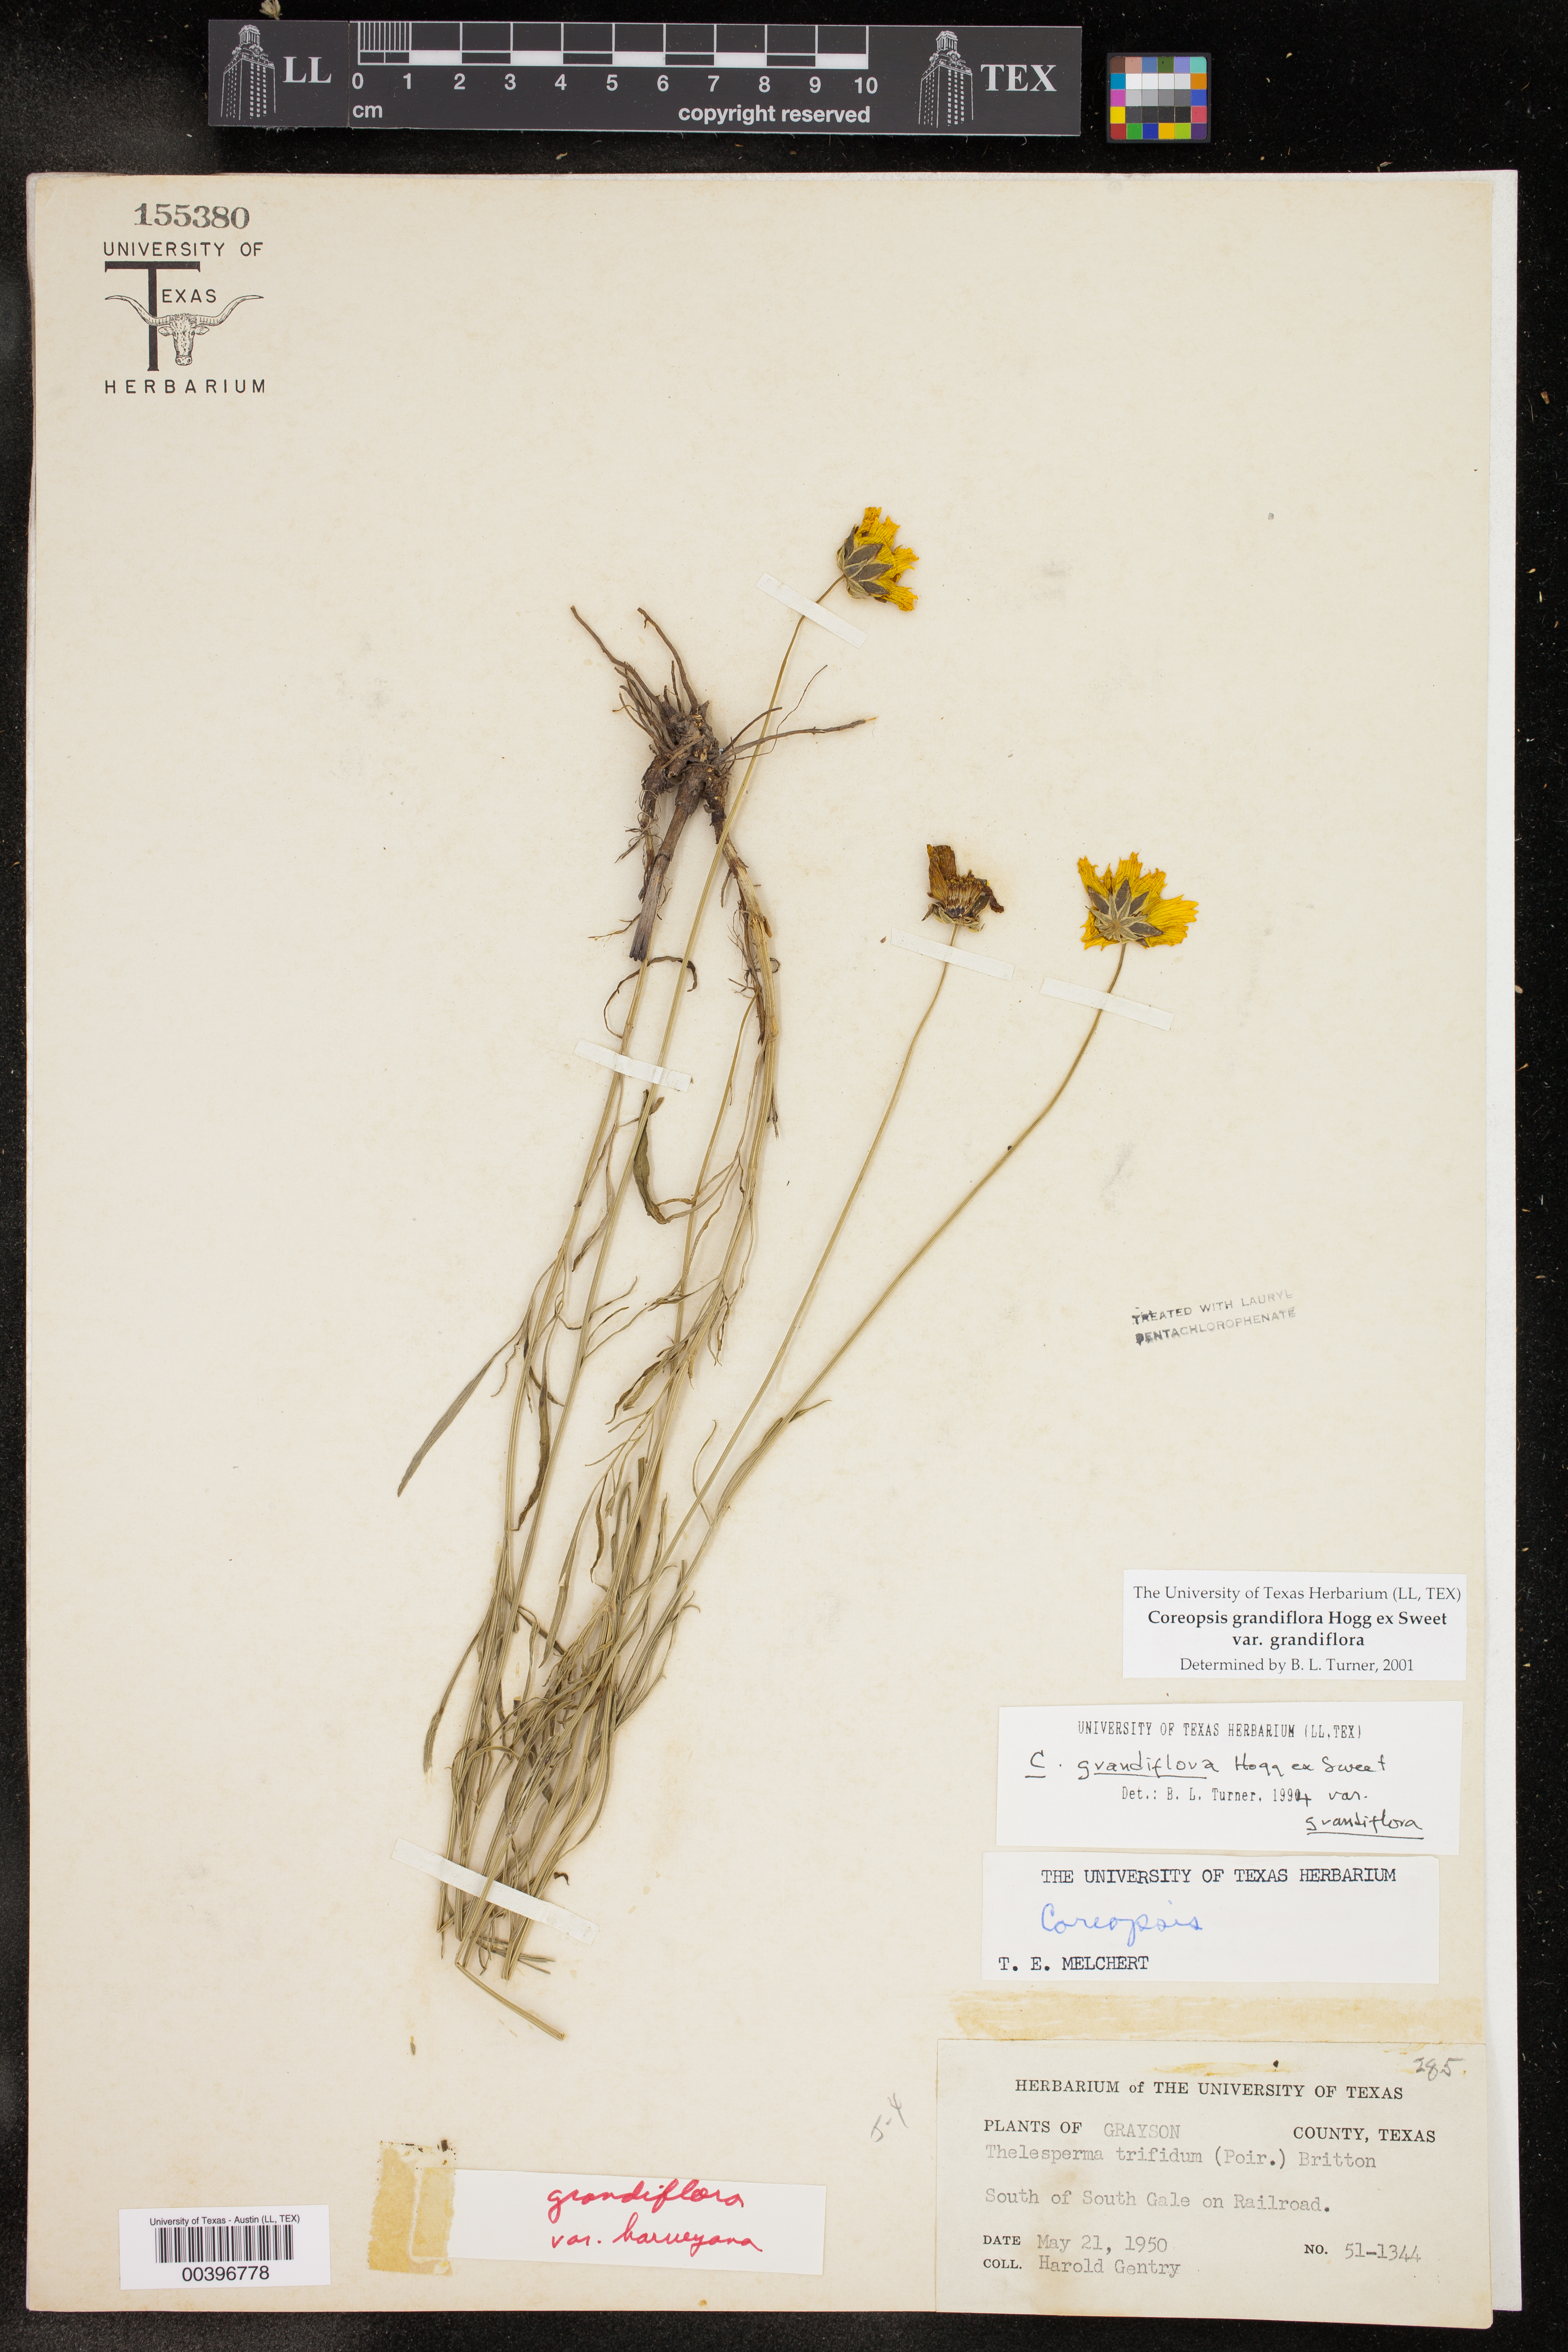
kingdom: Plantae
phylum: Tracheophyta
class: Magnoliopsida
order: Asterales
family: Asteraceae
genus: Coreopsis
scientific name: Coreopsis grandiflora
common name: Large-flowered tickseed
